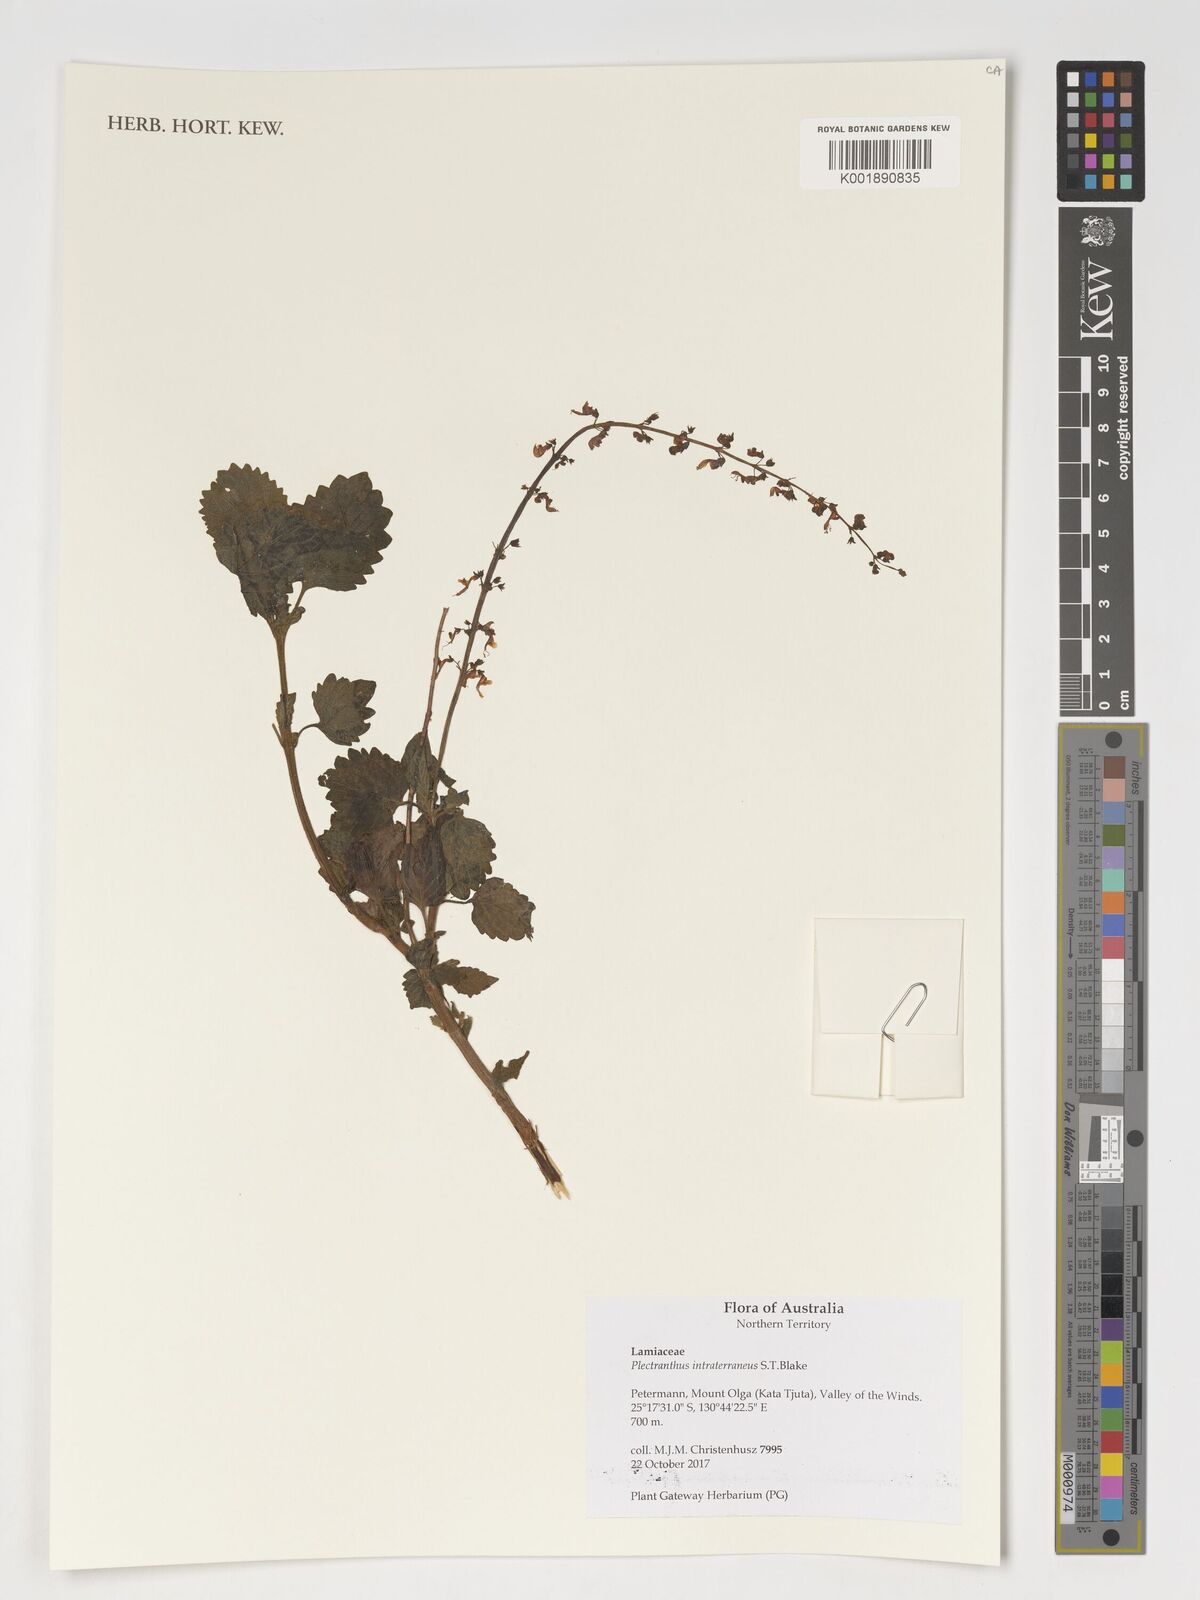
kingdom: Plantae
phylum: Tracheophyta
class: Magnoliopsida
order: Lamiales
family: Lamiaceae
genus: Coleus
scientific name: Coleus intraterraneus
